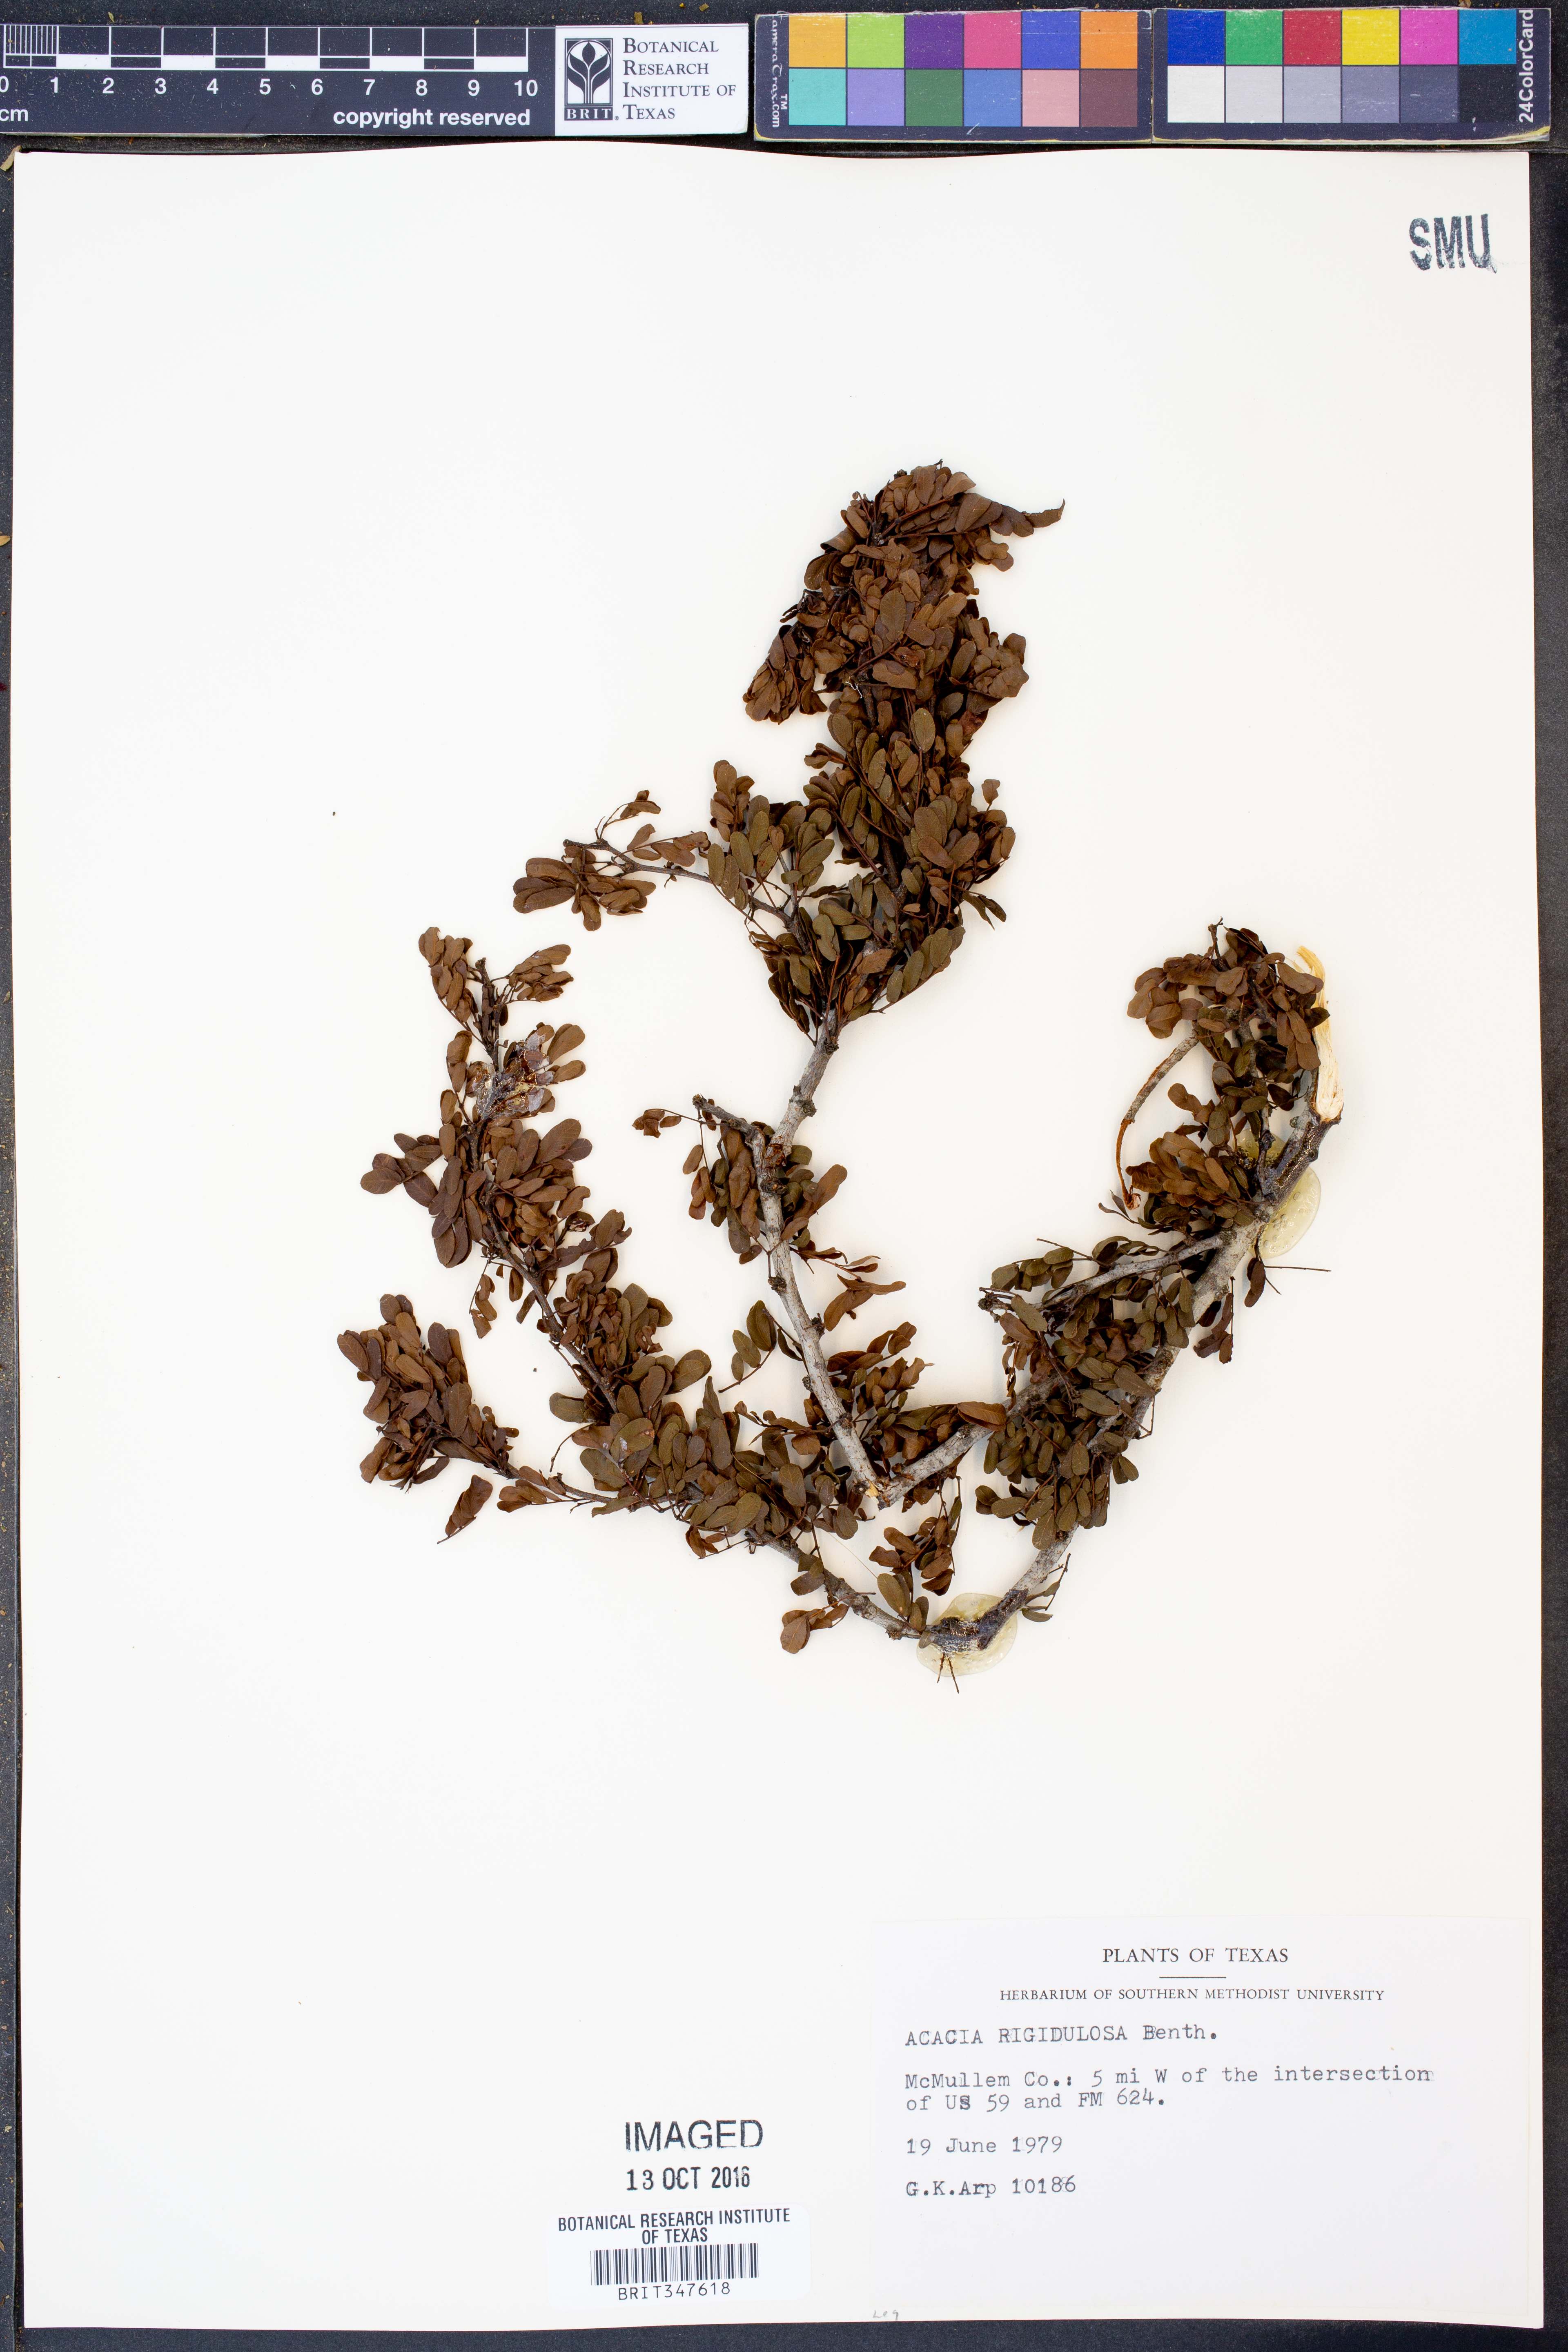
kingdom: Plantae
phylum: Tracheophyta
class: Magnoliopsida
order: Fabales
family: Fabaceae
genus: Vachellia
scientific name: Vachellia rigidula
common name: Blackbrush
